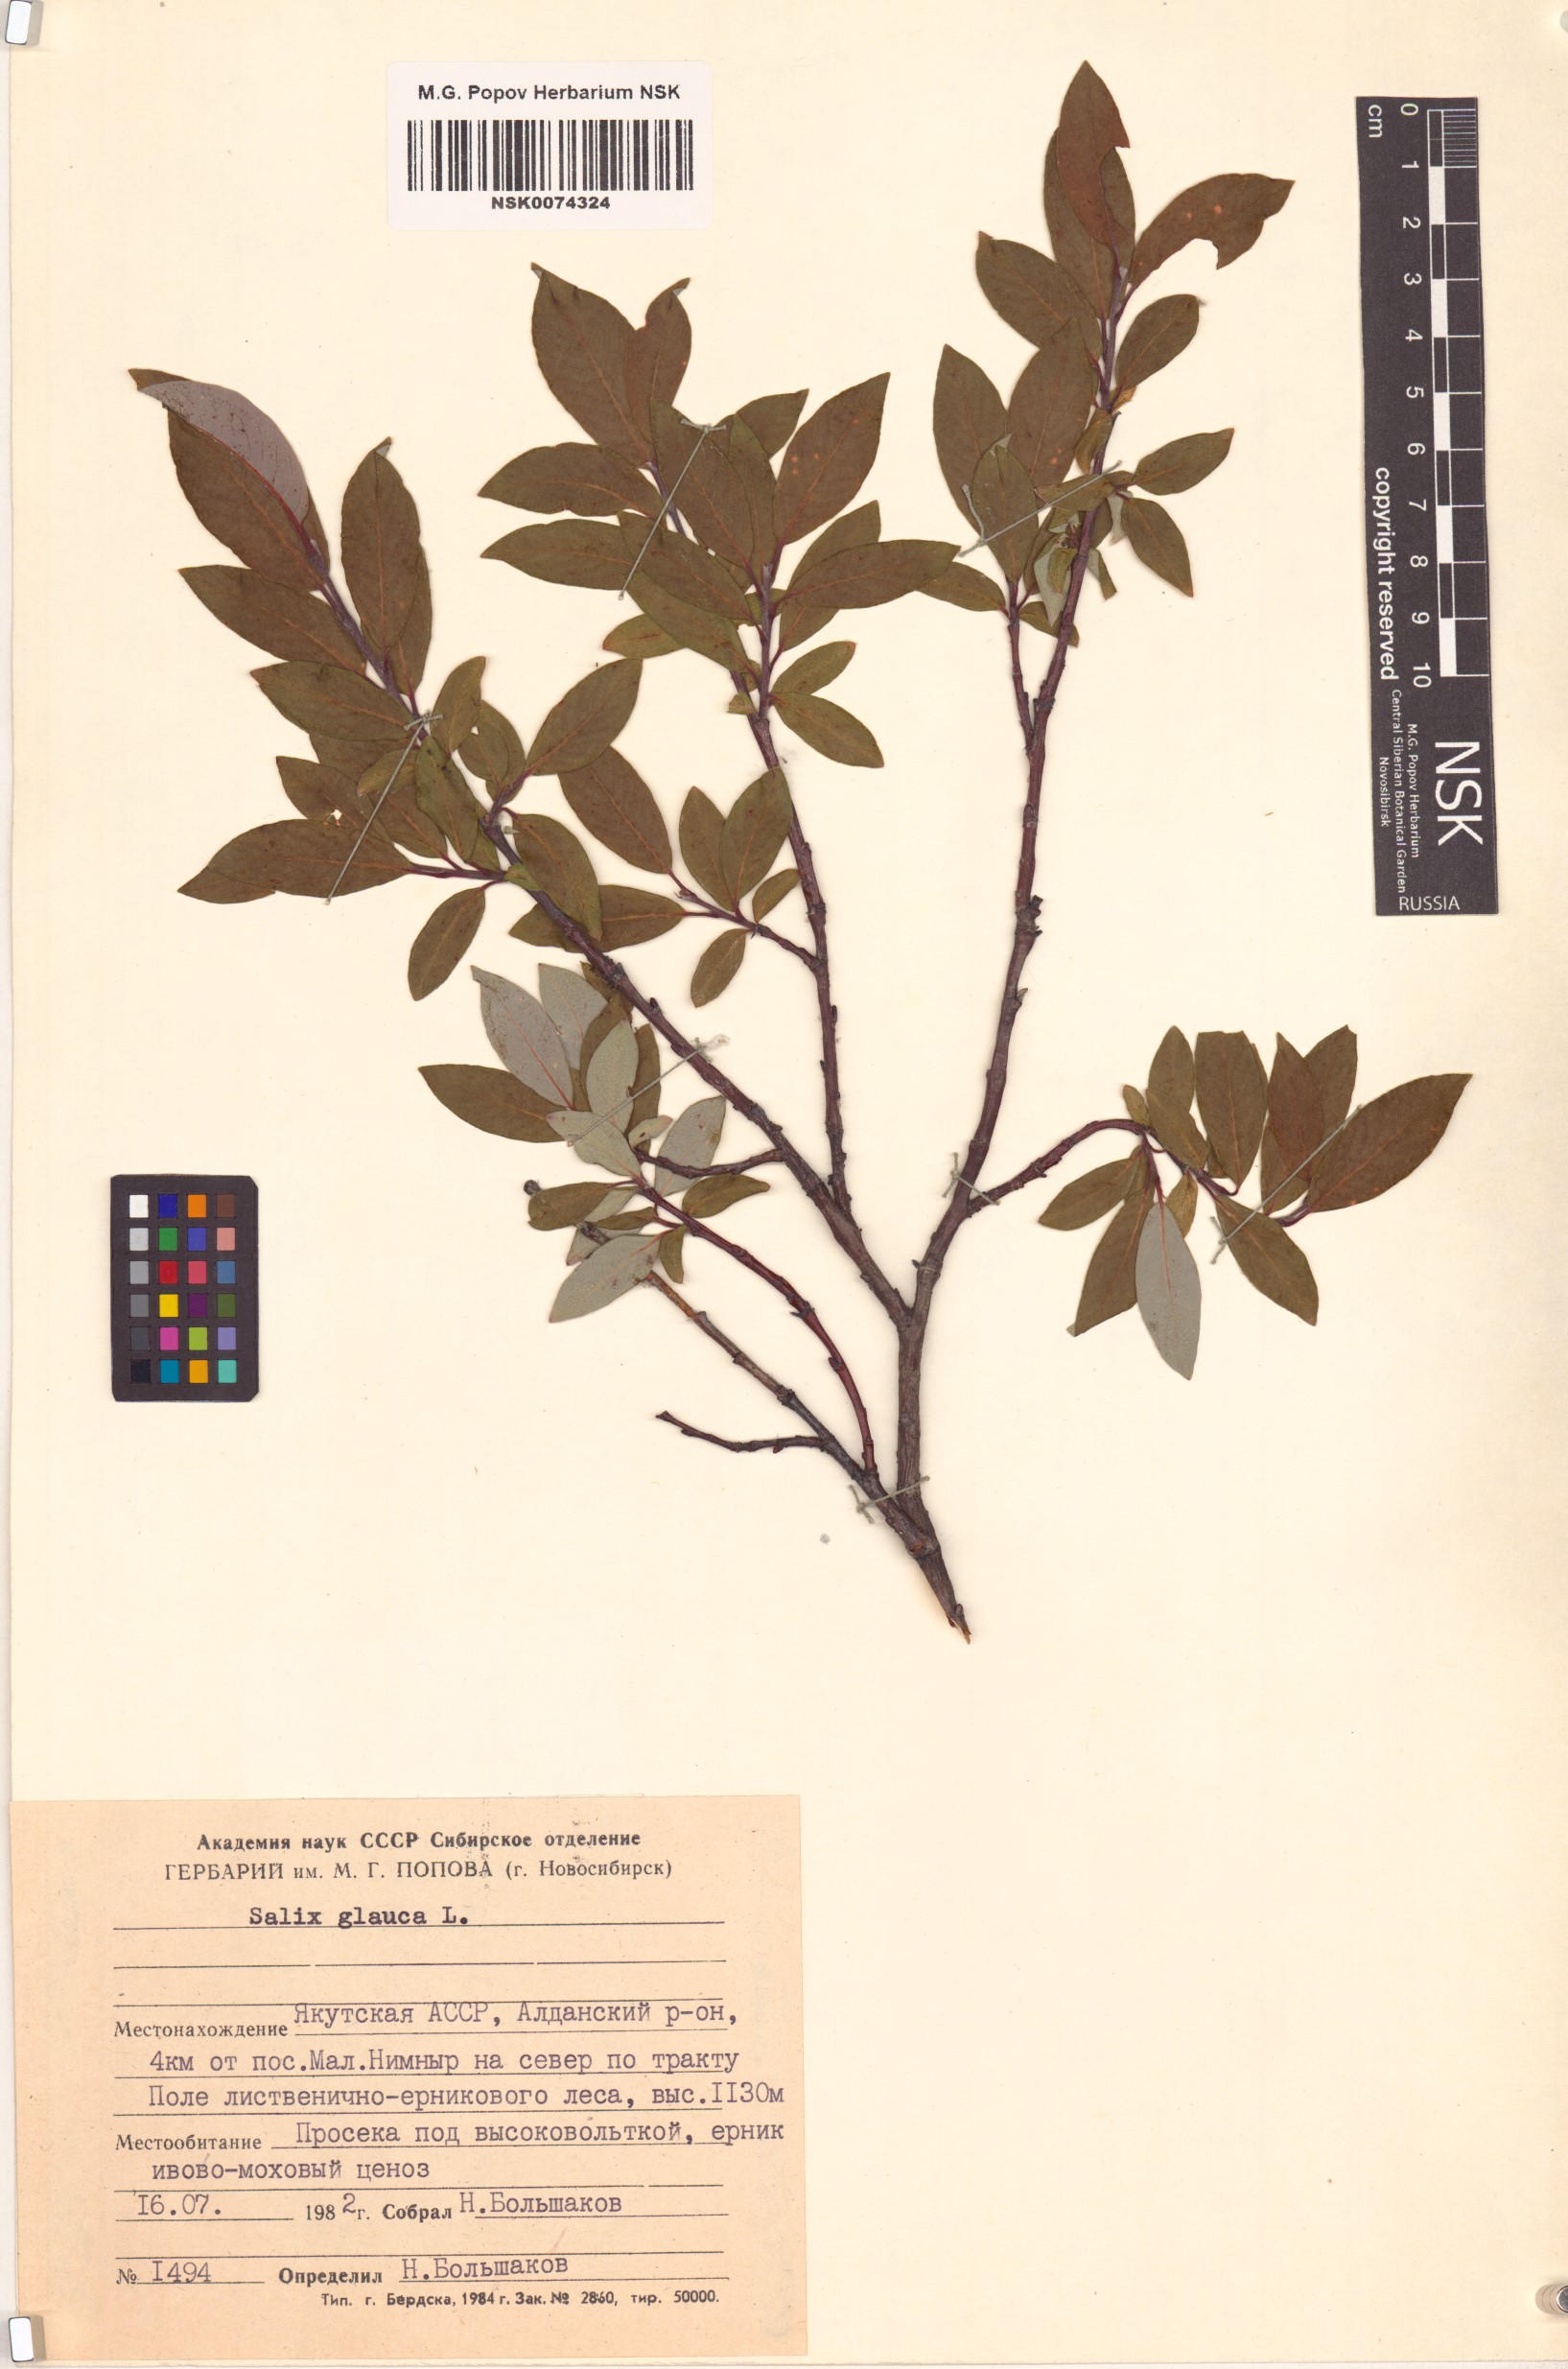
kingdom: Plantae
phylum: Tracheophyta
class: Magnoliopsida
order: Malpighiales
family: Salicaceae
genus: Salix
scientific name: Salix glauca
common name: Glaucous willow
